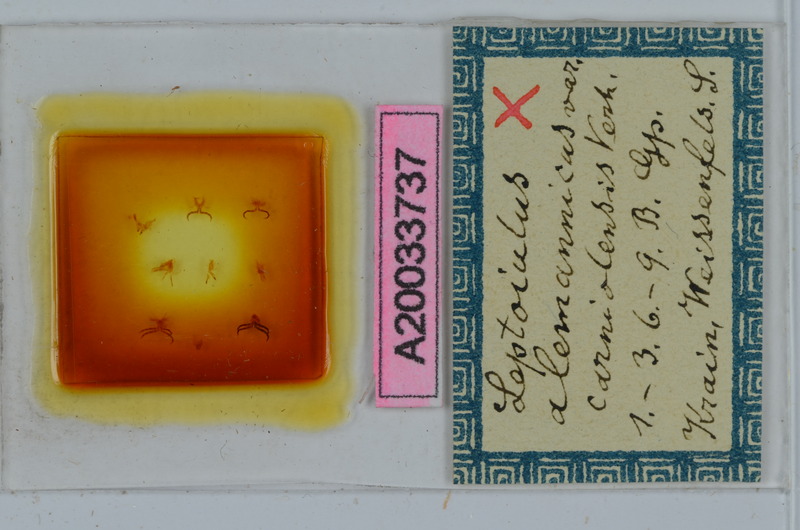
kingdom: Animalia
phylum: Arthropoda
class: Diplopoda
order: Julida
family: Julidae
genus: Leptoiulus
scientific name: Leptoiulus alemannicus
